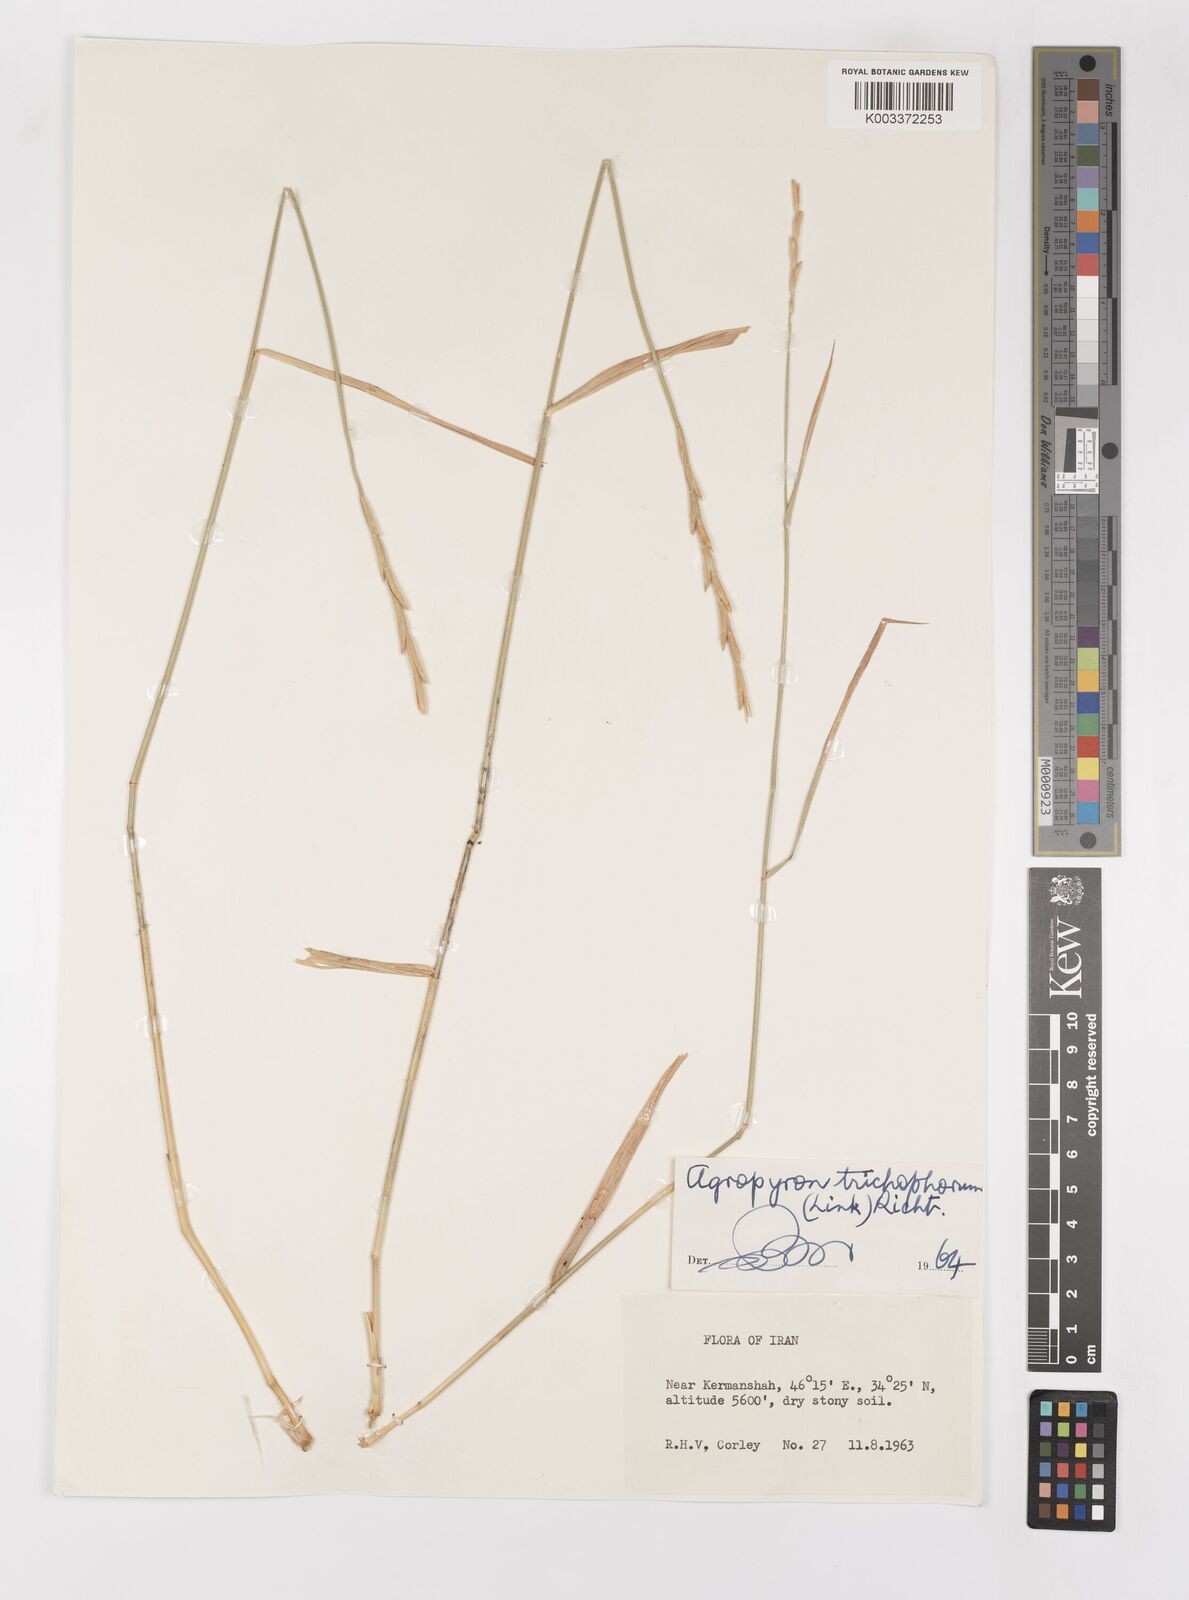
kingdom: Plantae
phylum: Tracheophyta
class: Liliopsida
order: Poales
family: Poaceae
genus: Thinopyrum
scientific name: Thinopyrum intermedium
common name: Intermediate wheatgrass
